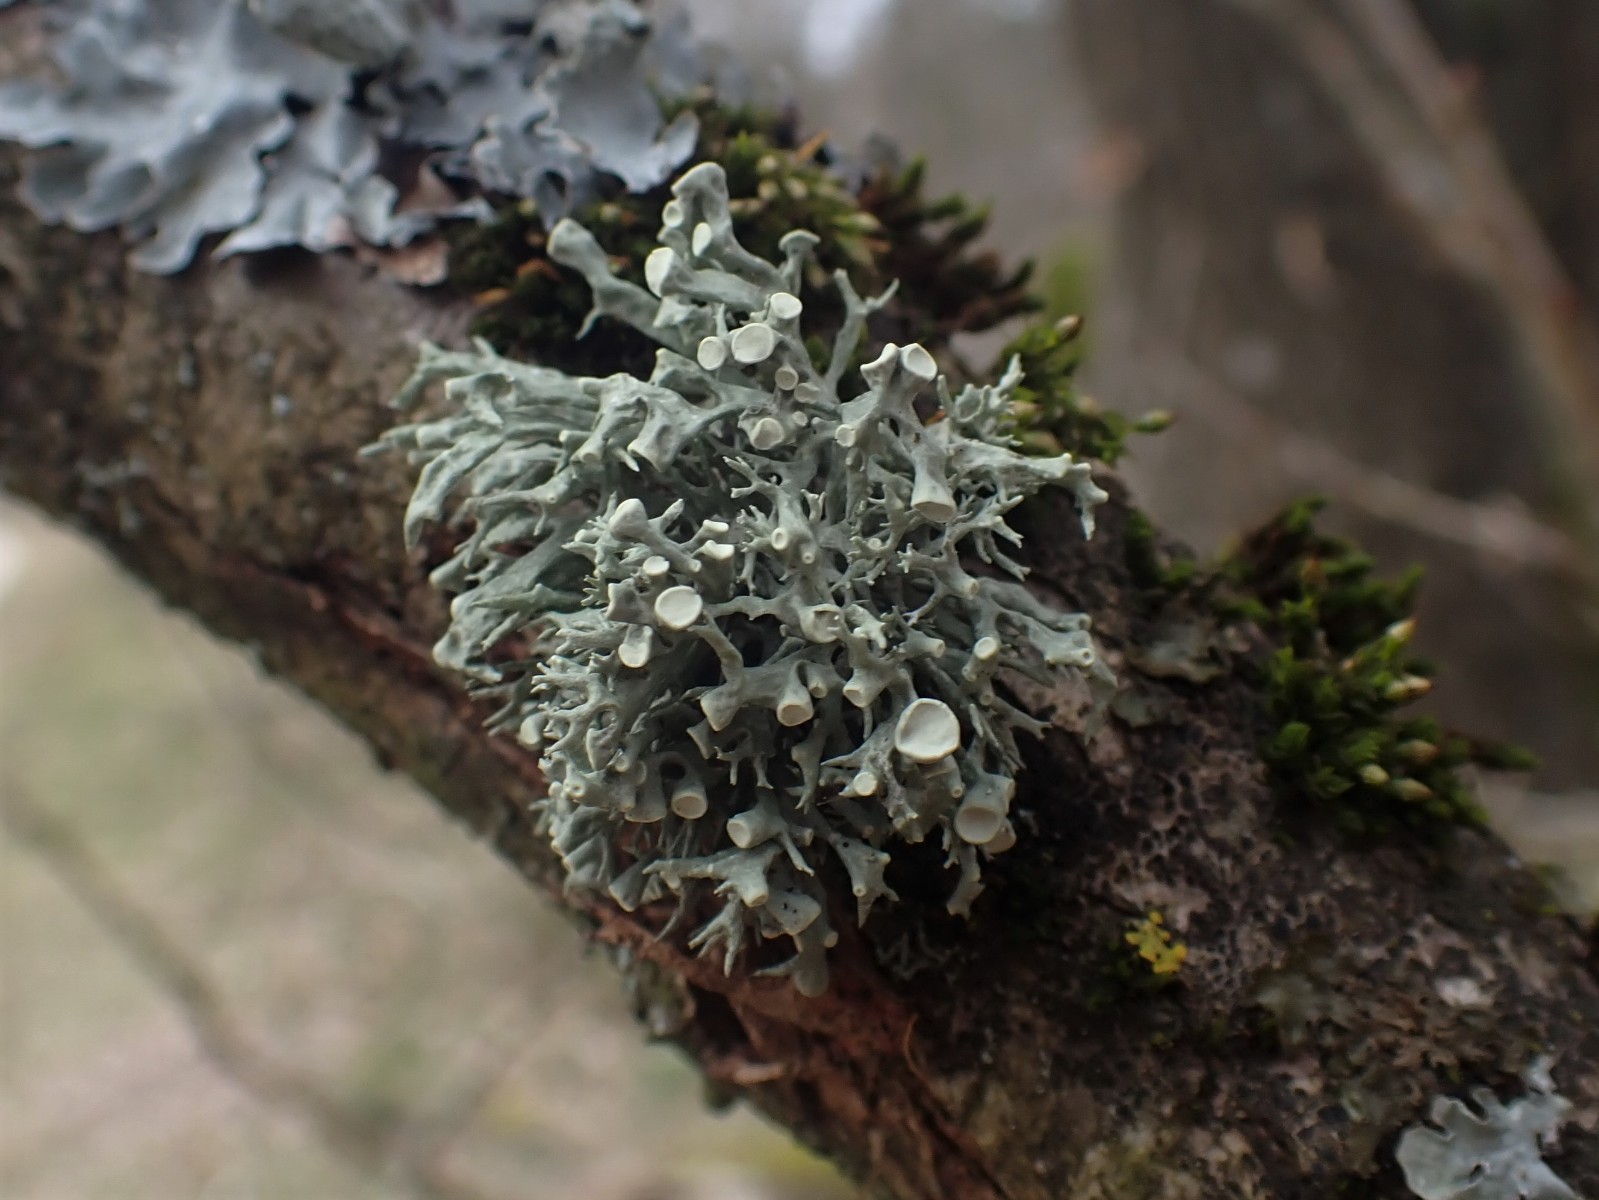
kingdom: Fungi
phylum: Ascomycota
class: Lecanoromycetes
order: Lecanorales
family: Ramalinaceae
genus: Ramalina
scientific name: Ramalina fastigiata
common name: tue-grenlav
